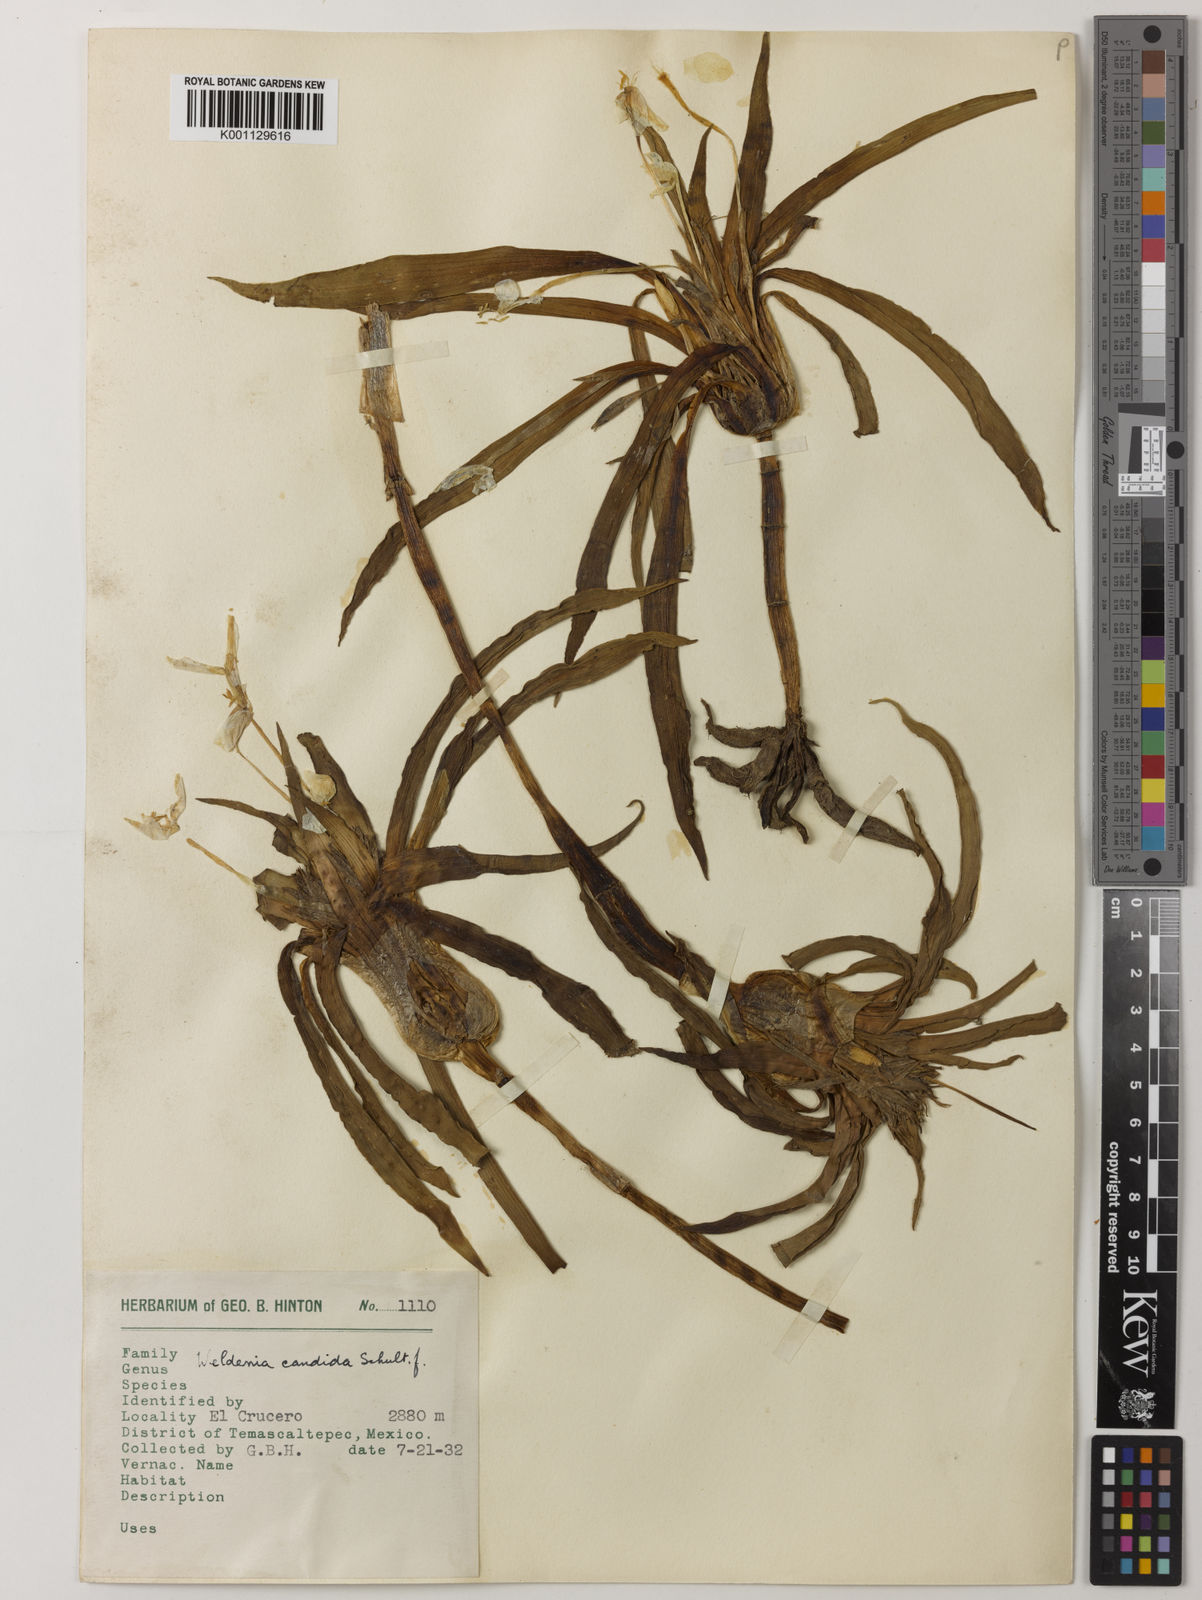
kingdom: Plantae
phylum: Tracheophyta
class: Liliopsida
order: Commelinales
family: Commelinaceae
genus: Weldenia
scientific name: Weldenia candida
